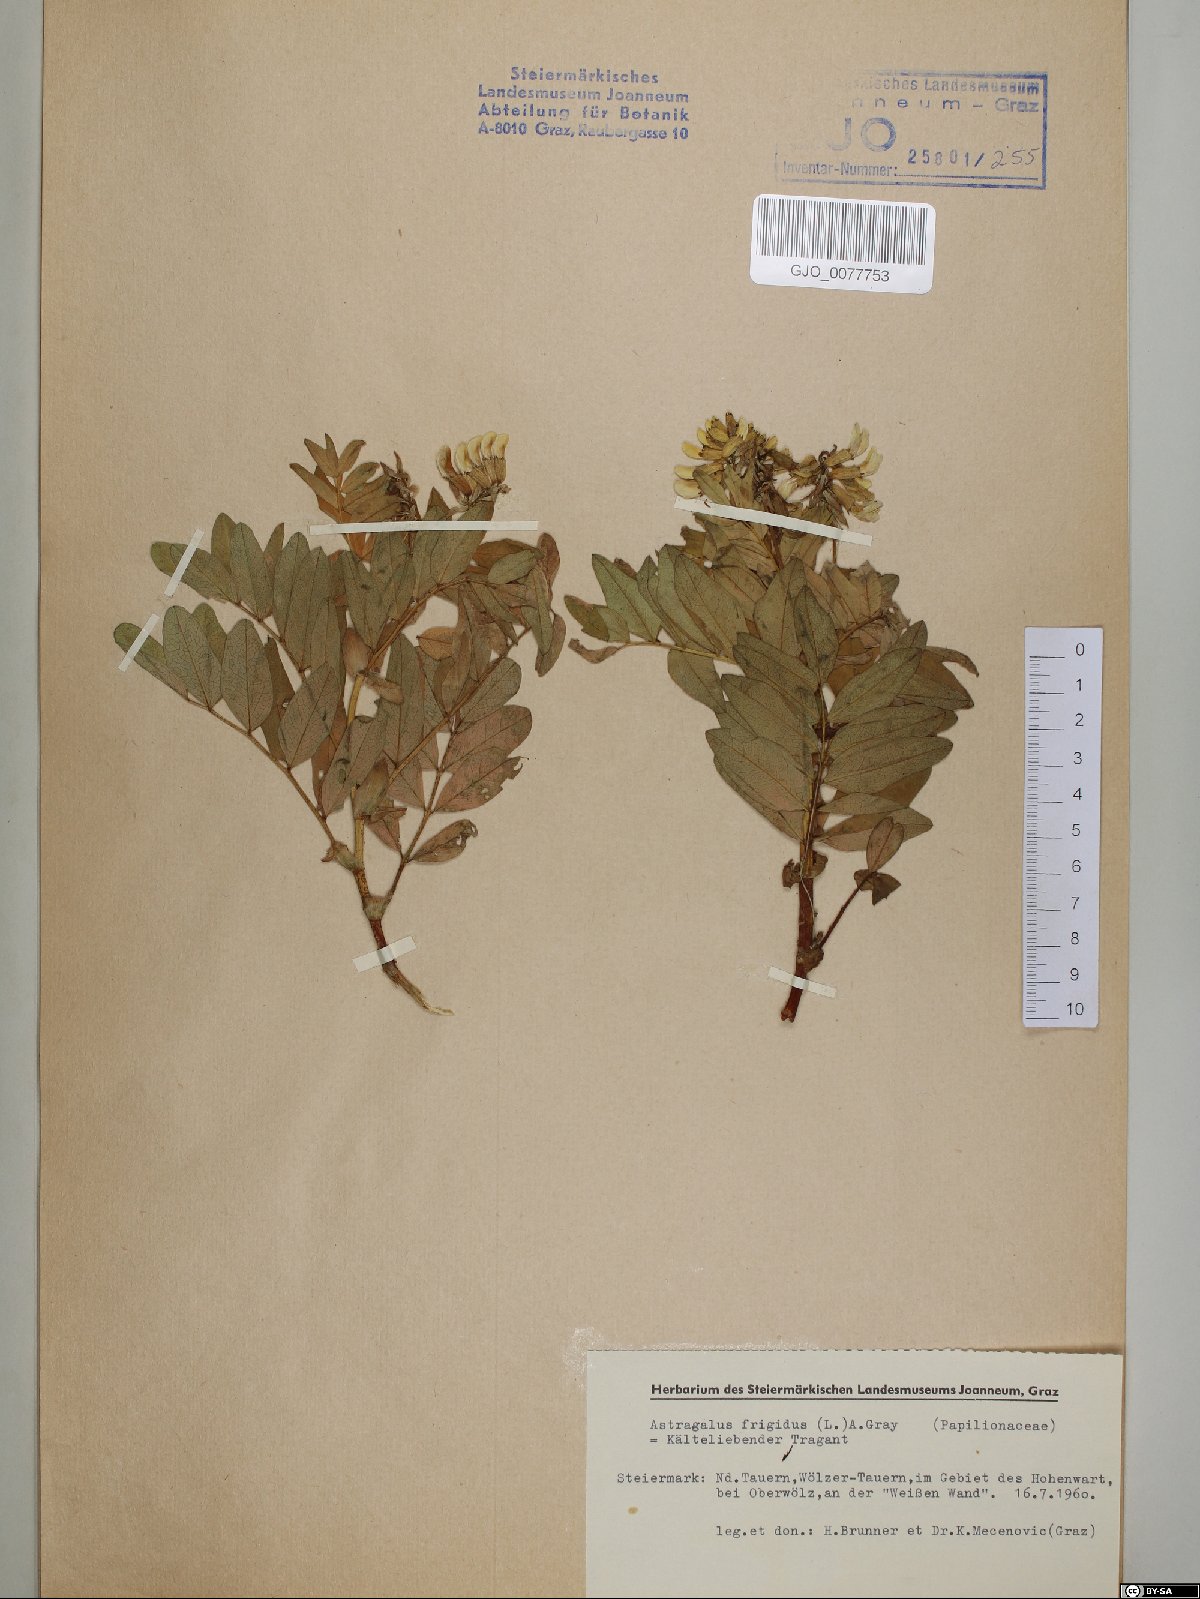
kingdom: Plantae
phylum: Tracheophyta
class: Magnoliopsida
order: Fabales
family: Fabaceae
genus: Astragalus
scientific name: Astragalus frigidus
